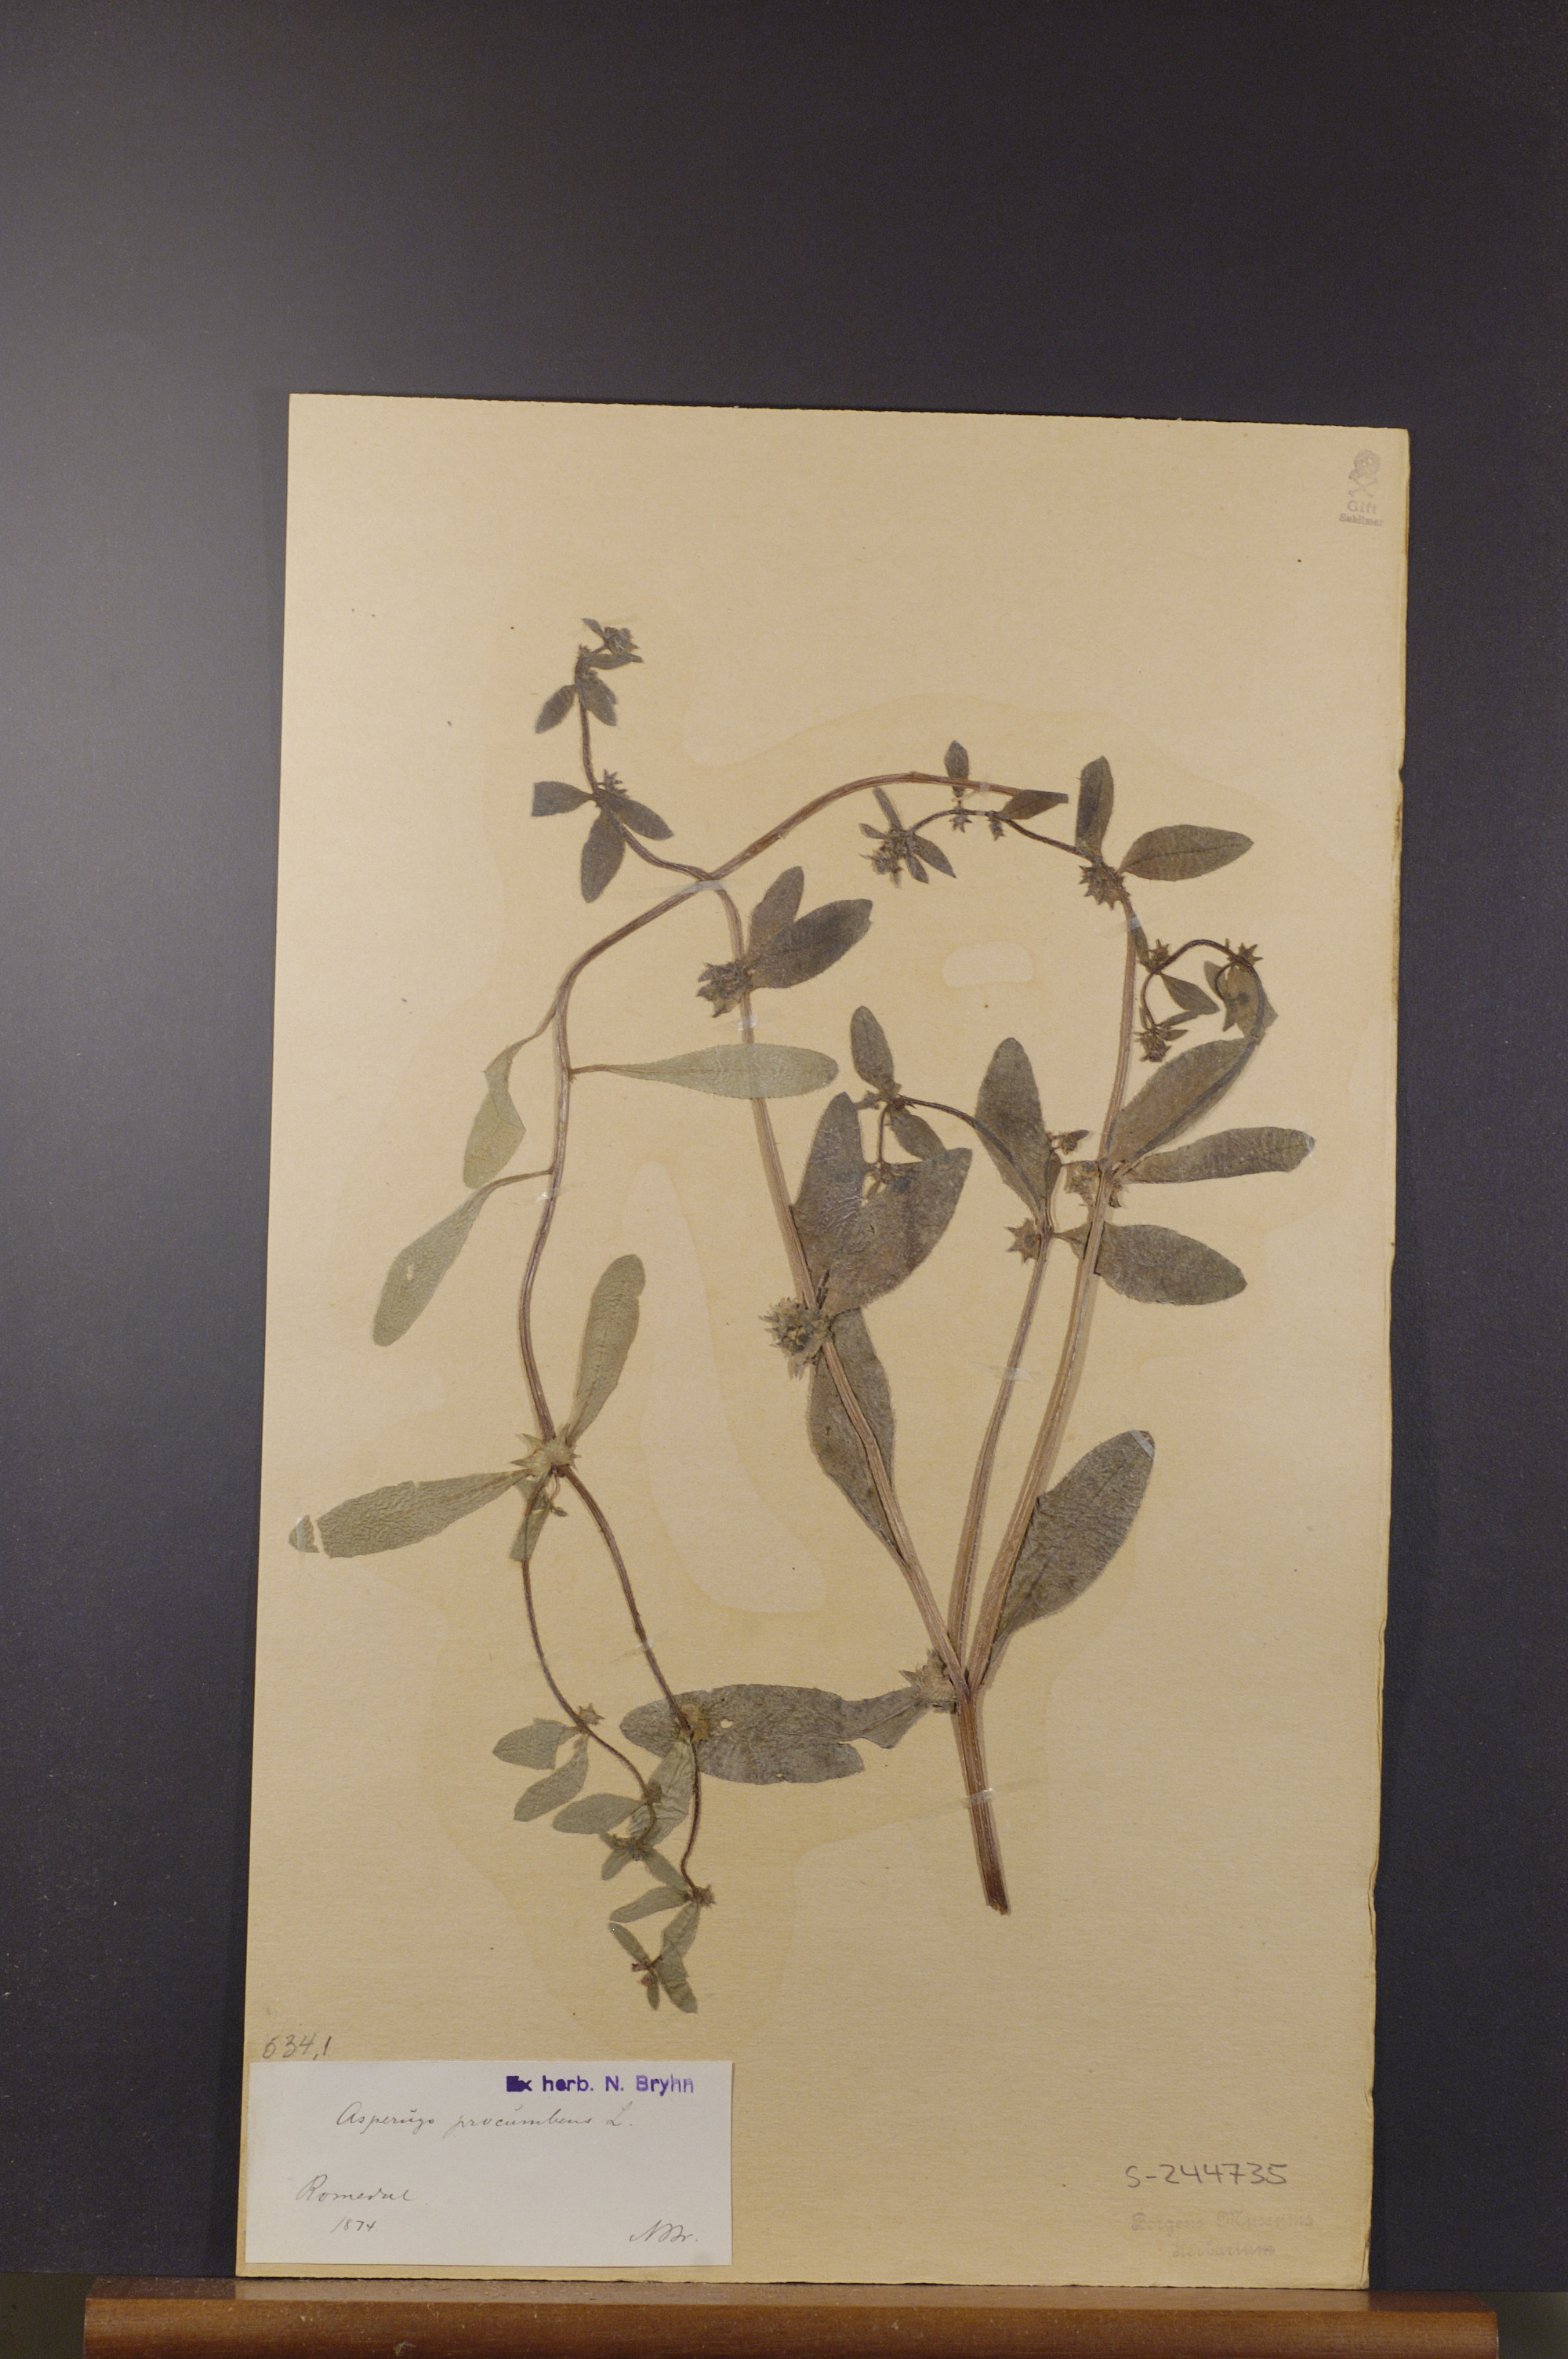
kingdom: Plantae
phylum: Tracheophyta
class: Magnoliopsida
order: Boraginales
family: Boraginaceae
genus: Asperugo
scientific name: Asperugo procumbens
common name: Madwort
